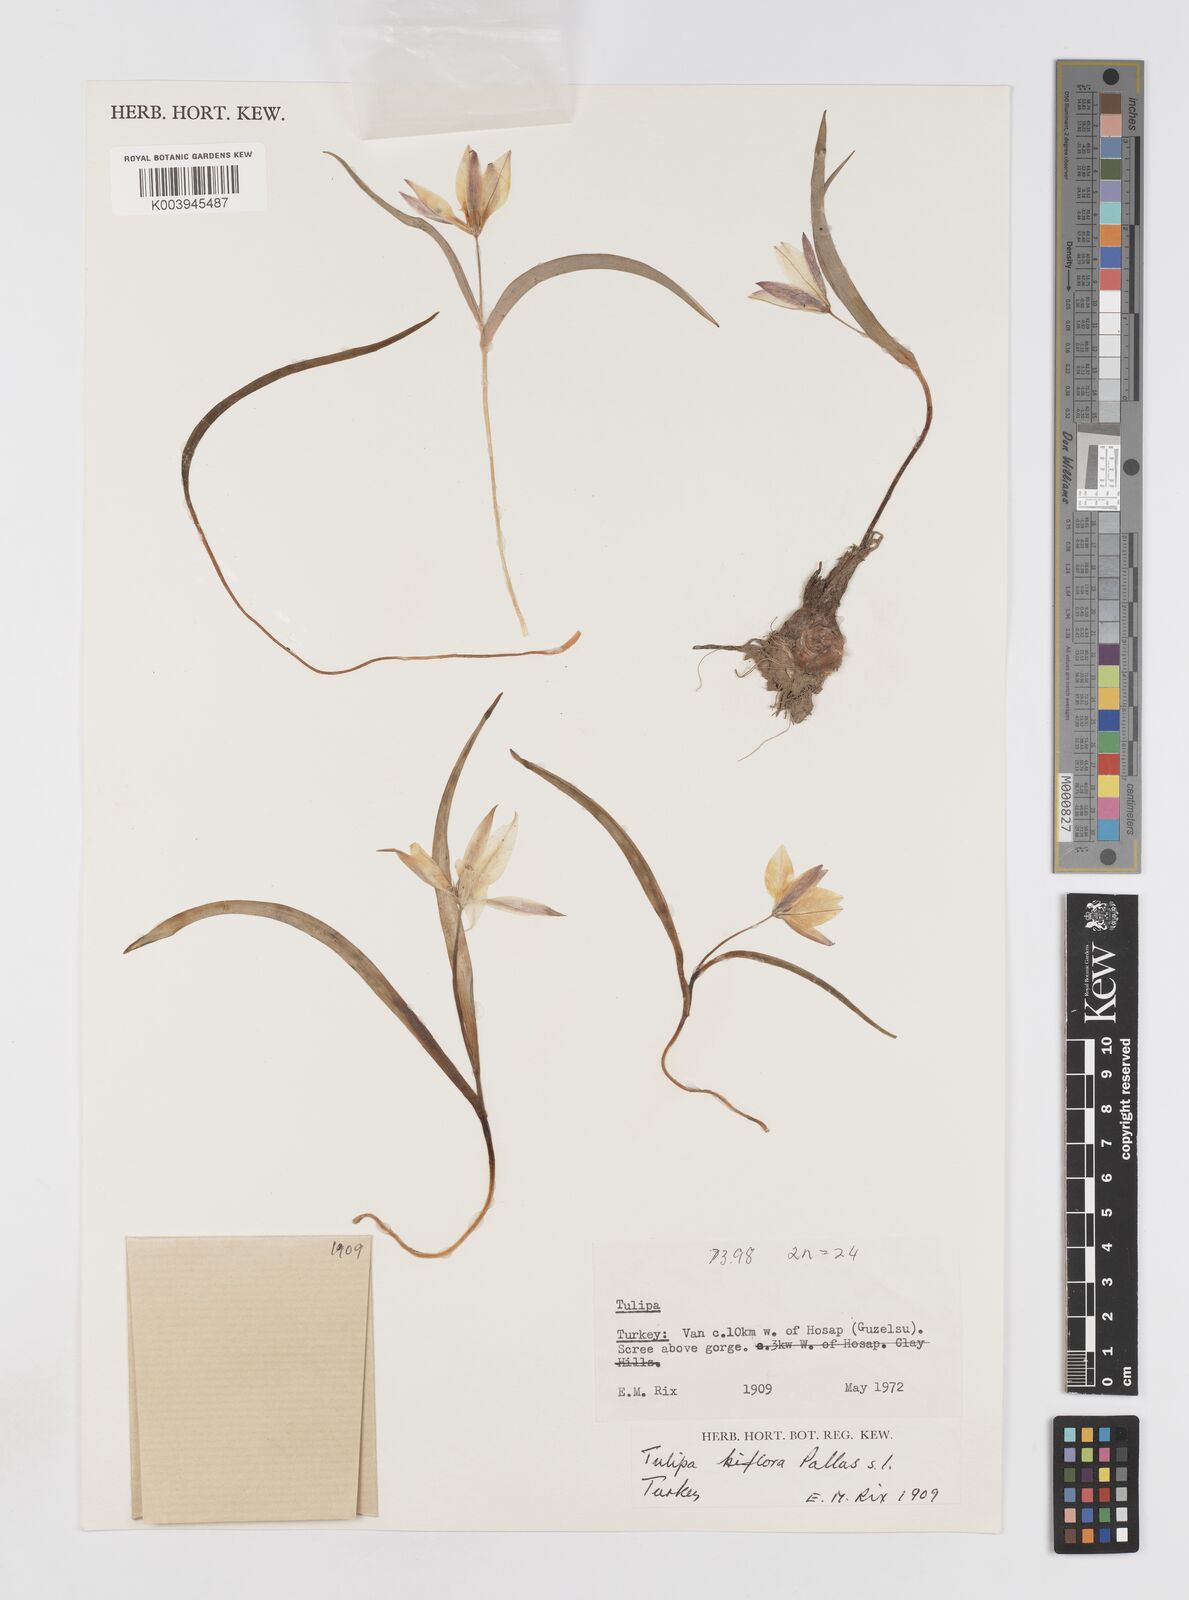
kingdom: Plantae
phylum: Tracheophyta
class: Liliopsida
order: Liliales
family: Liliaceae
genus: Tulipa
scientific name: Tulipa biflora
